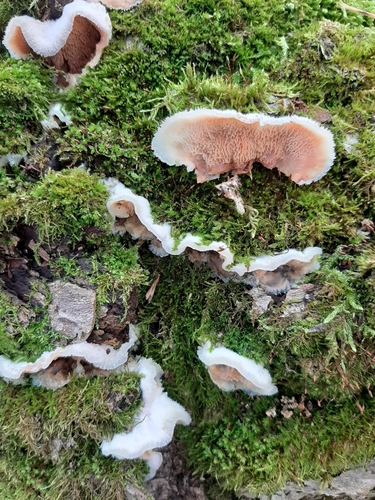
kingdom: Fungi
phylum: Basidiomycota
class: Agaricomycetes
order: Polyporales
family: Meruliaceae
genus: Phlebia
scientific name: Phlebia tremellosa
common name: Jelly rot
